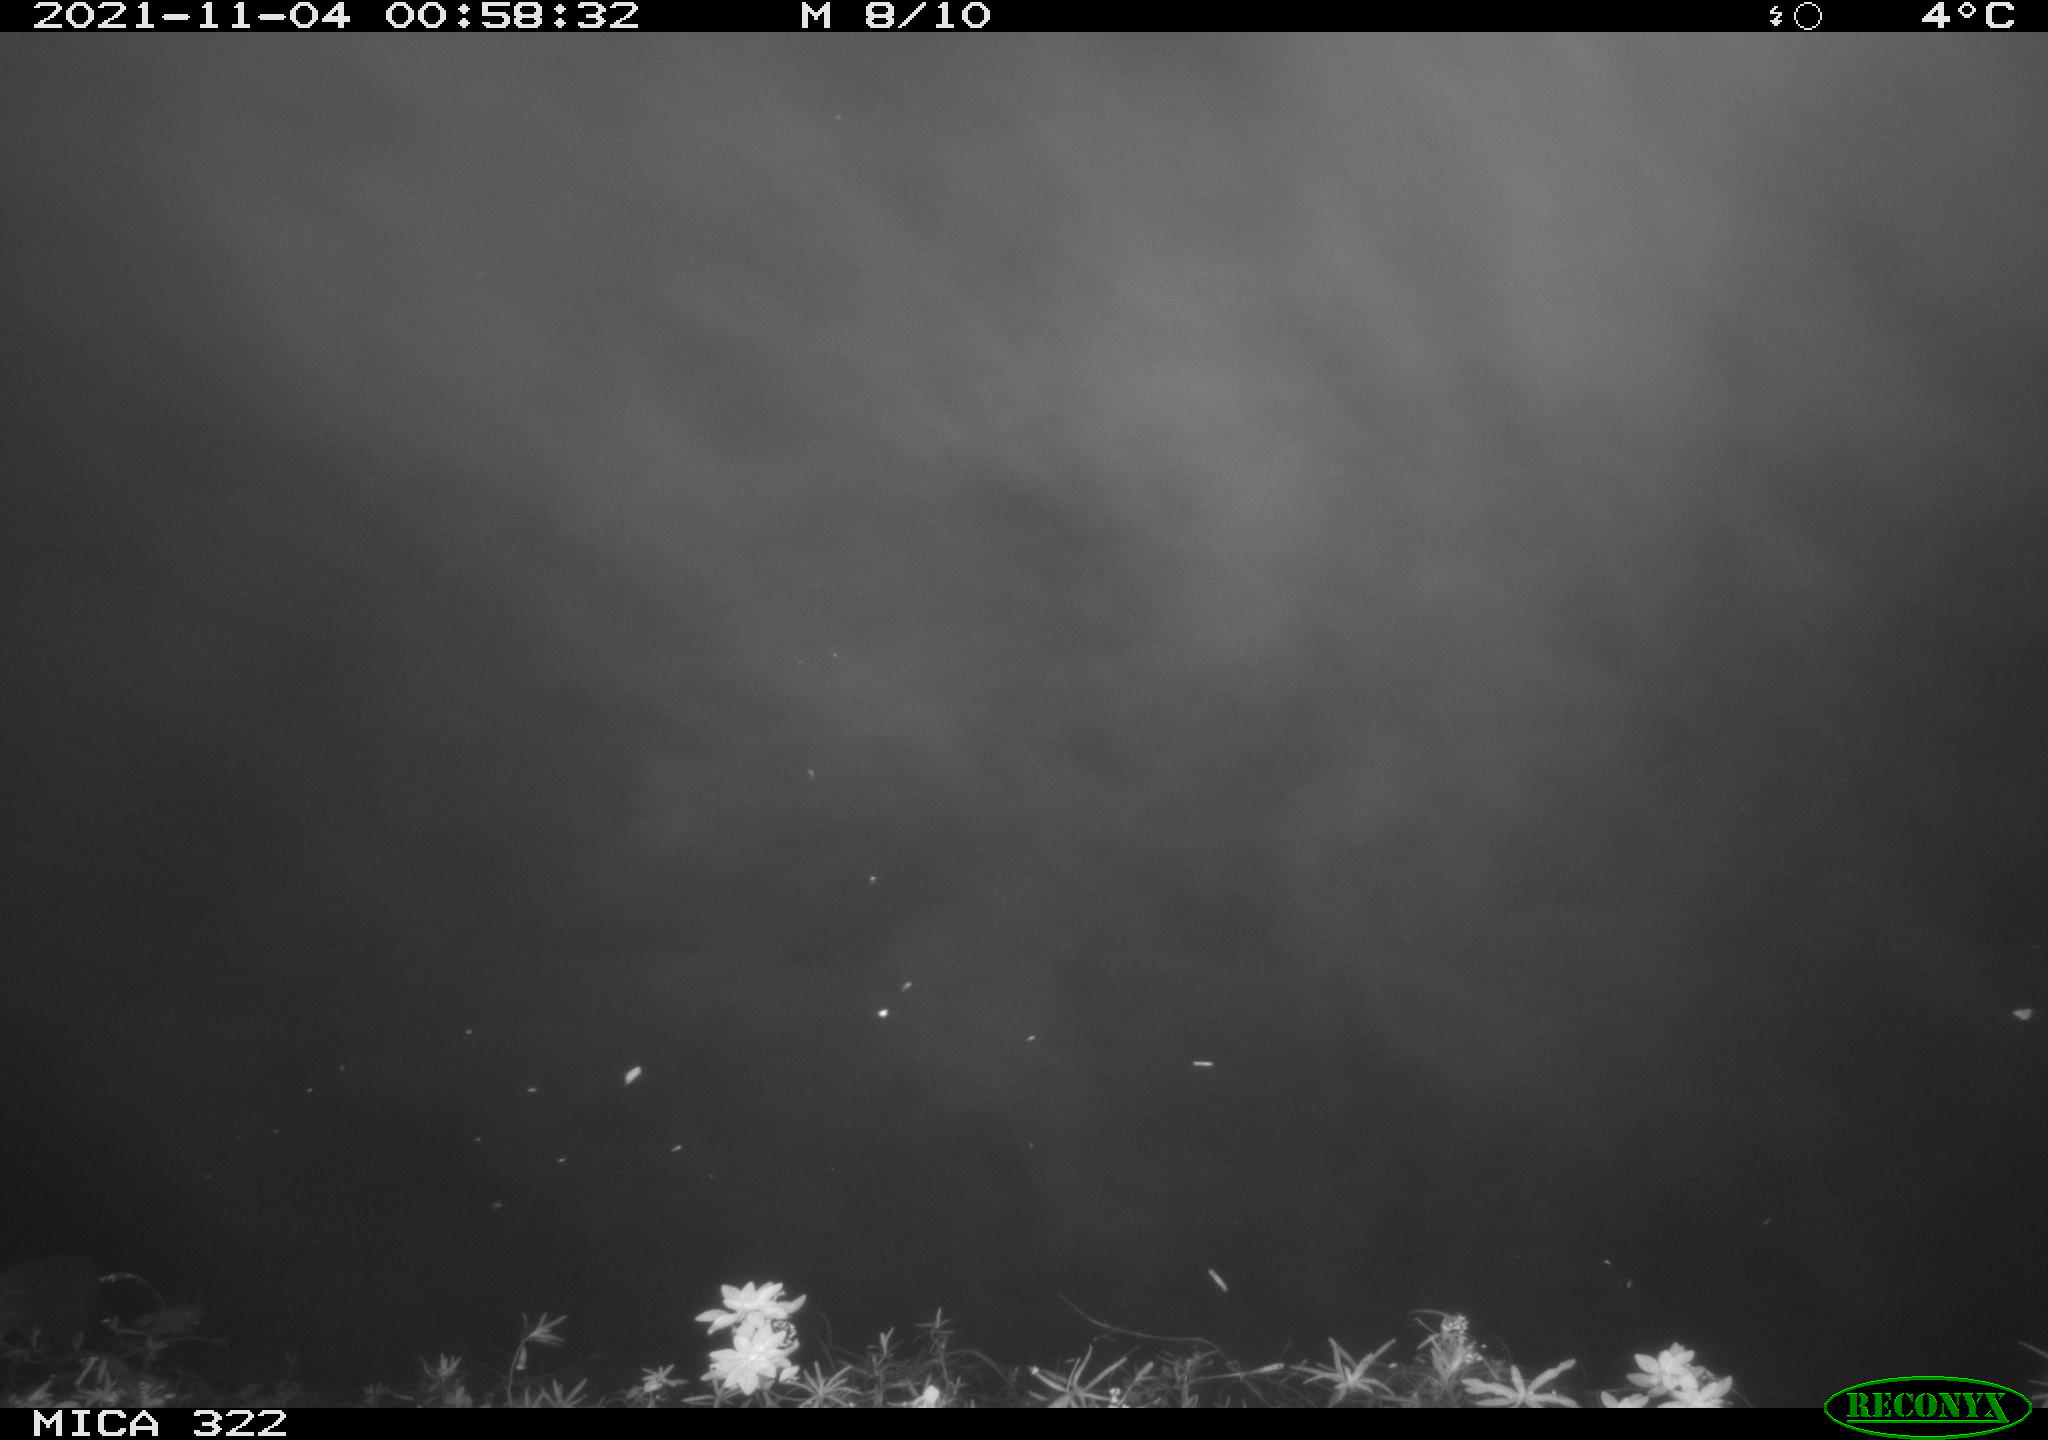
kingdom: Animalia
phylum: Chordata
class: Aves
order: Anseriformes
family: Anatidae
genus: Mareca
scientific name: Mareca strepera
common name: Gadwall
